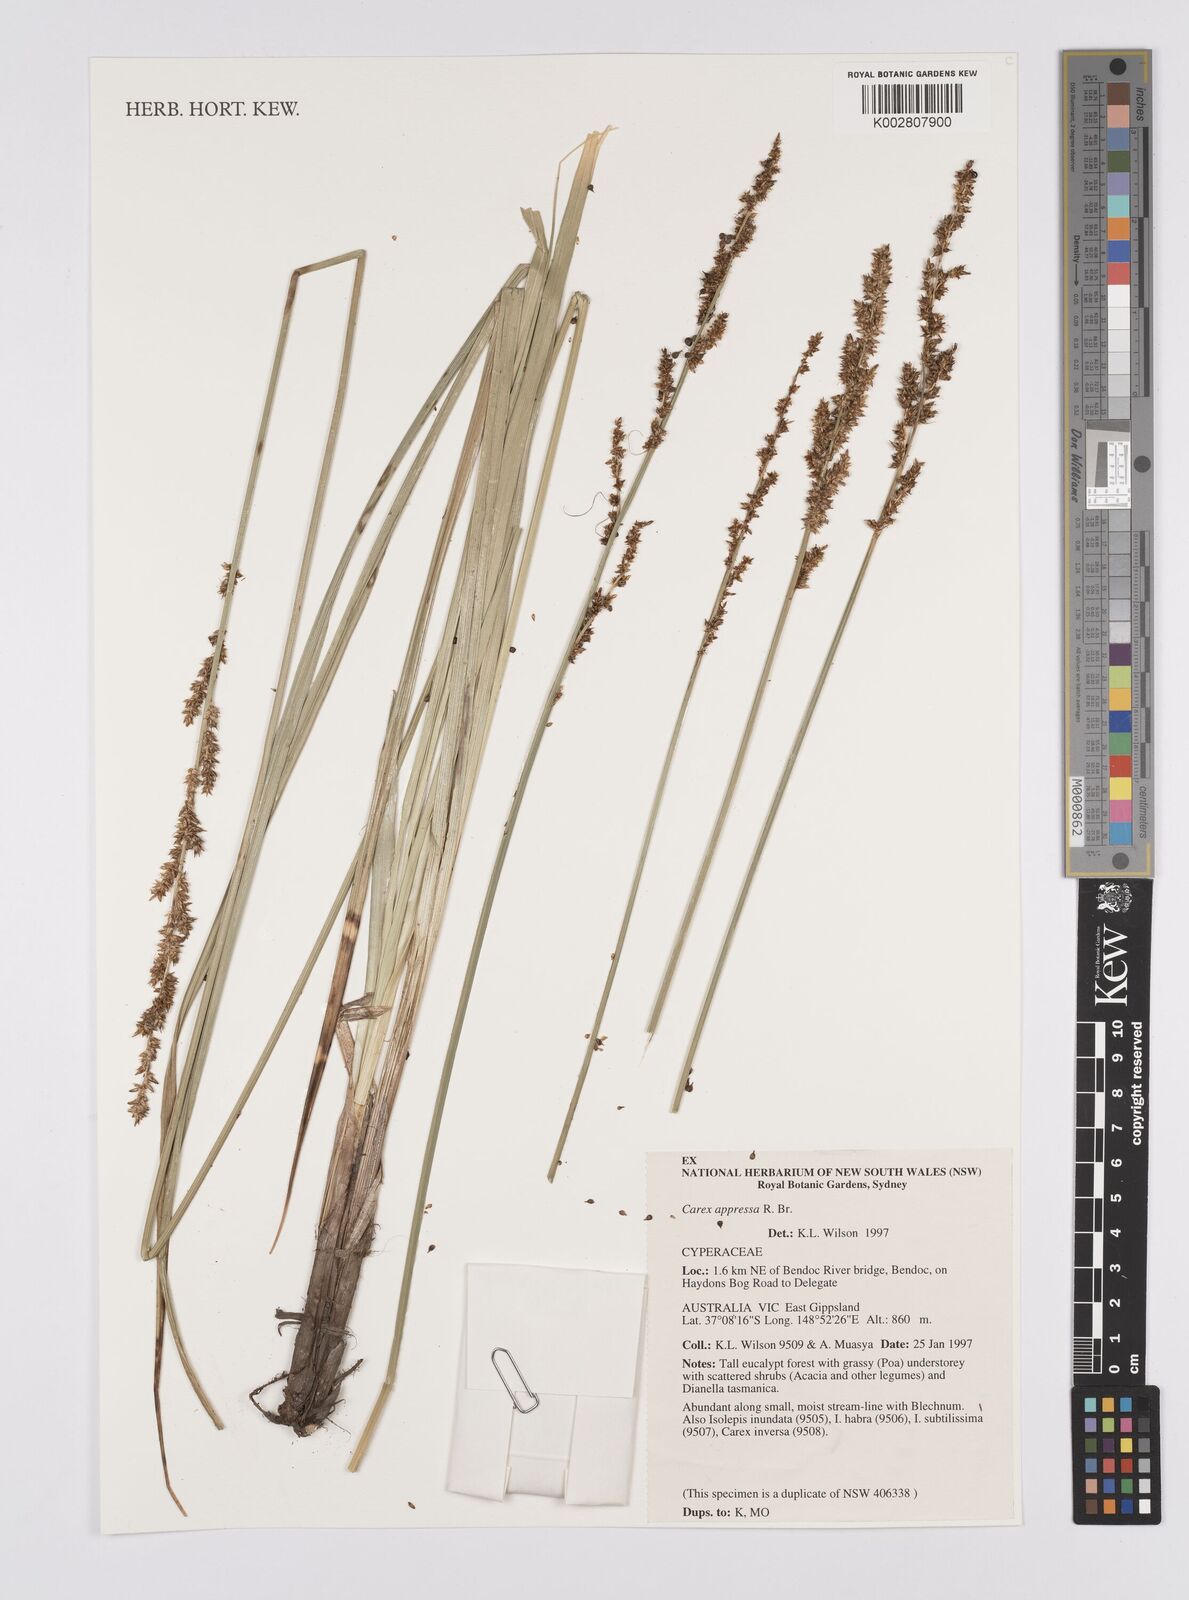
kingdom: Plantae
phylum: Tracheophyta
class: Liliopsida
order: Poales
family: Cyperaceae
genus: Carex
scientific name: Carex appressa
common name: Tussock sedge
